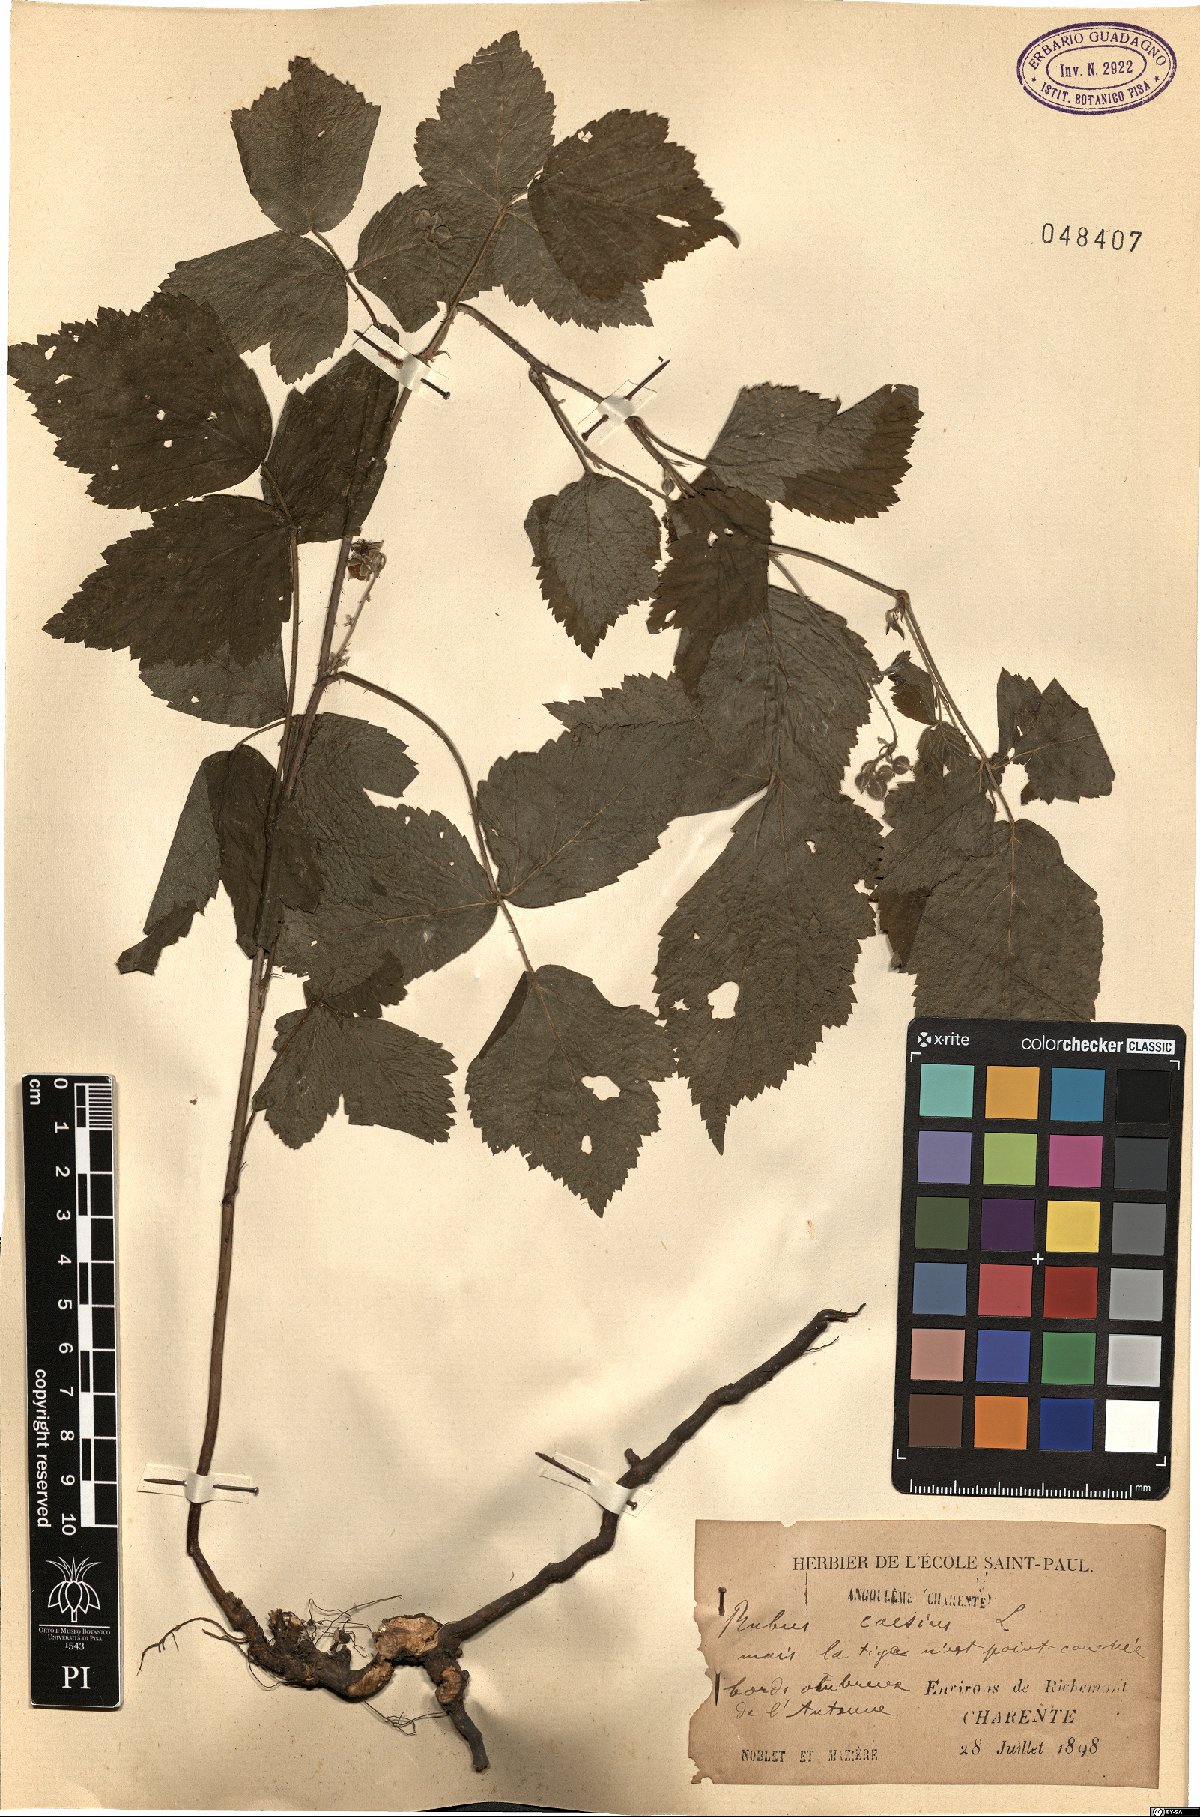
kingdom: Plantae
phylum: Tracheophyta
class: Magnoliopsida
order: Rosales
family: Rosaceae
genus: Rubus
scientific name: Rubus caesius
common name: Dewberry
